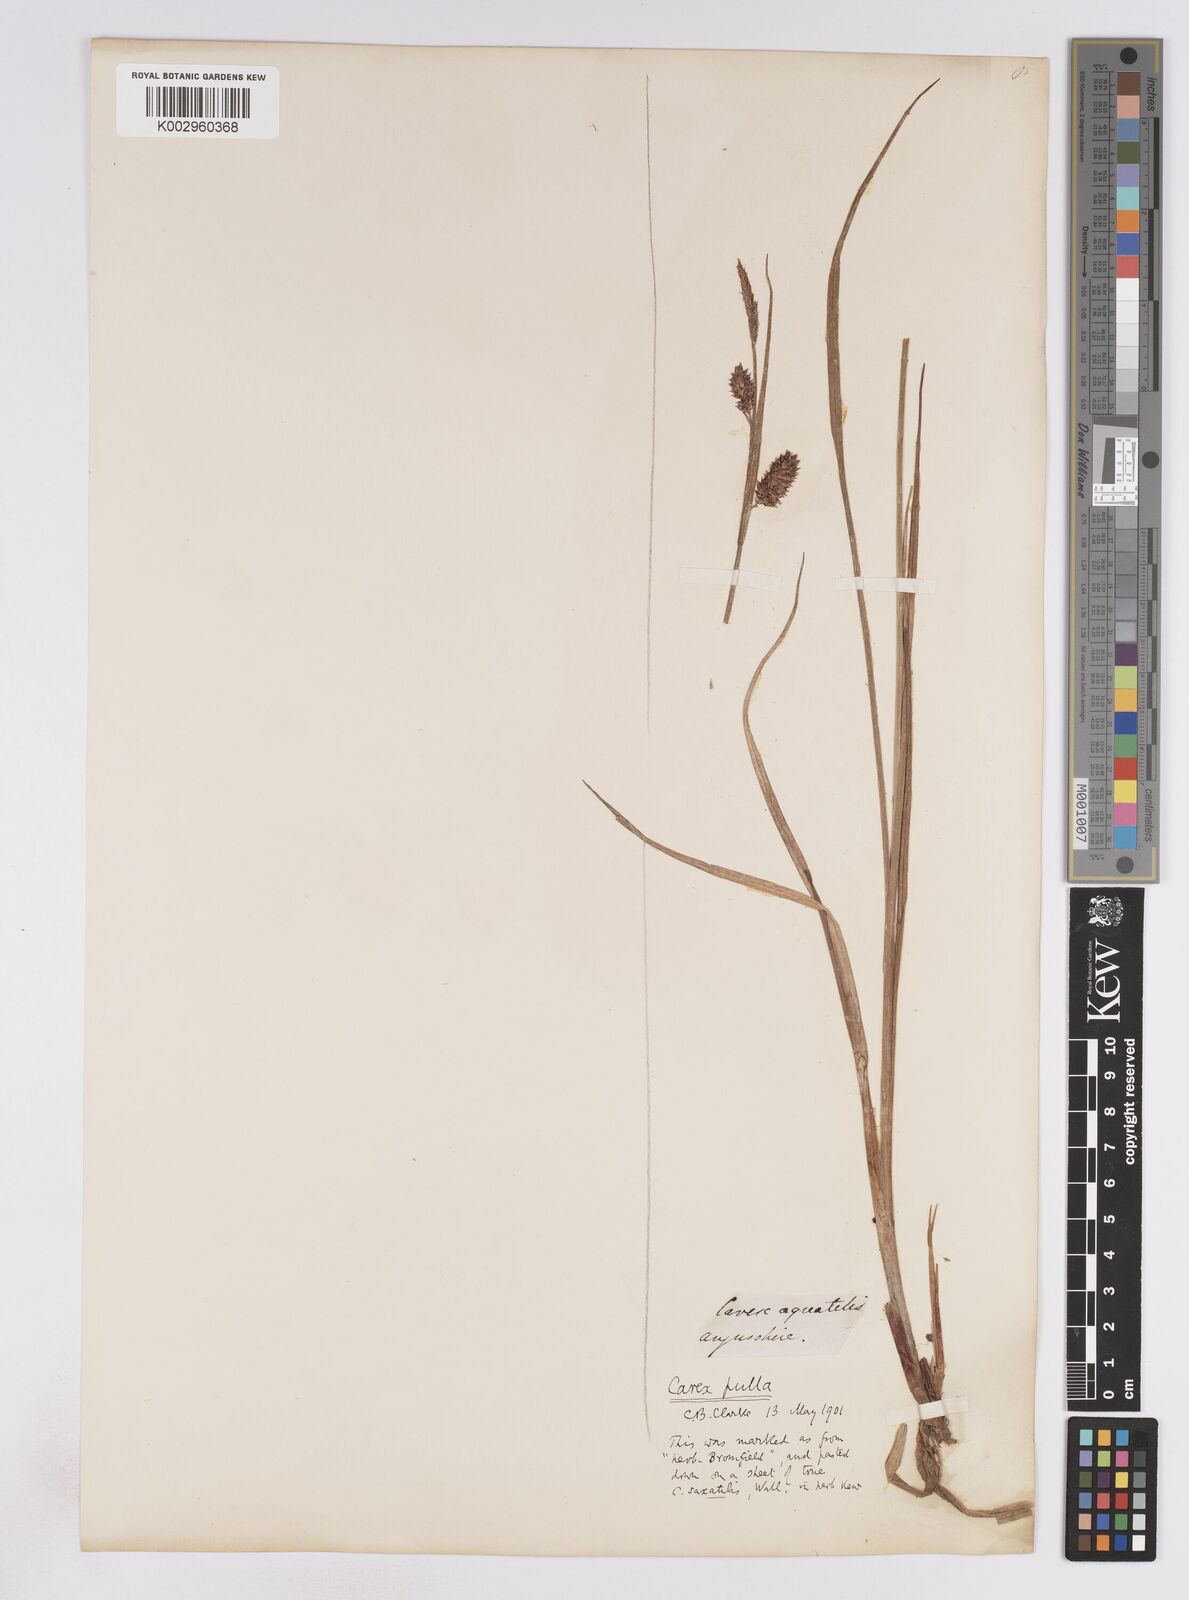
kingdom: Plantae
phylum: Tracheophyta
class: Liliopsida
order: Poales
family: Cyperaceae
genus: Carex
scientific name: Carex vesicaria
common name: Bladder-sedge
